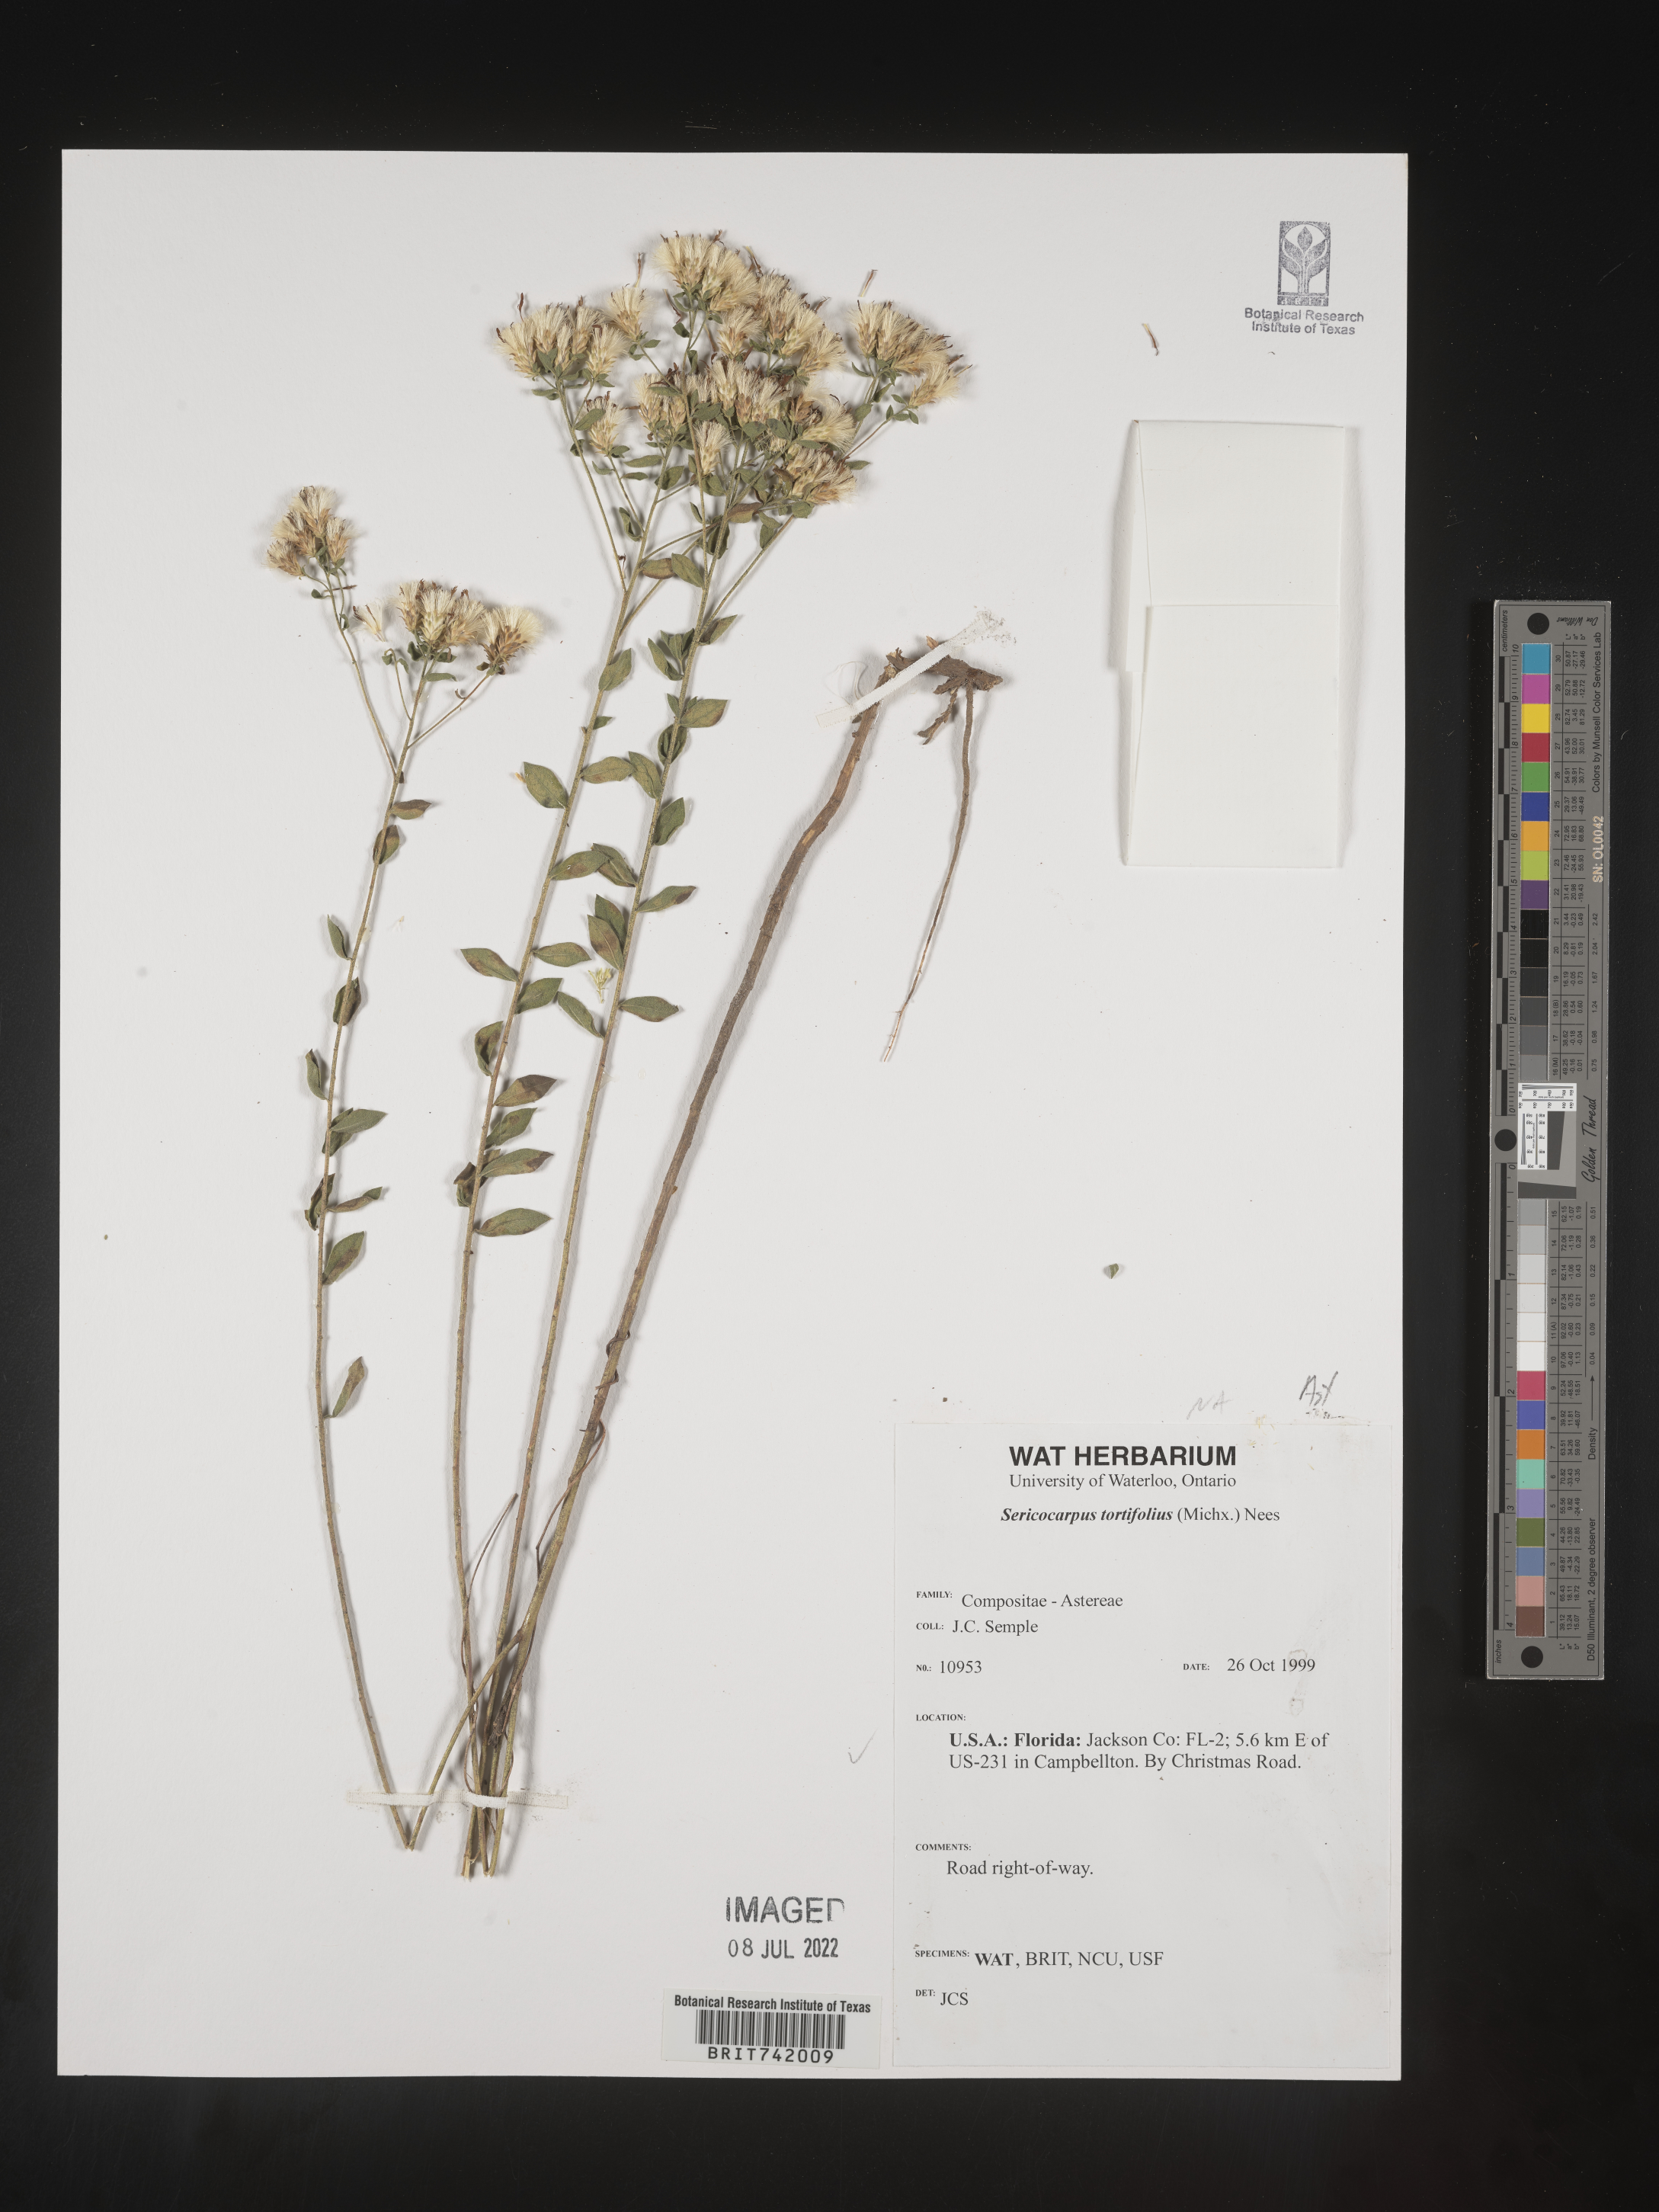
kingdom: Plantae
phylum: Tracheophyta
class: Magnoliopsida
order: Asterales
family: Asteraceae
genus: Sericocarpus
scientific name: Sericocarpus tortifolius
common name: Dixie aster
